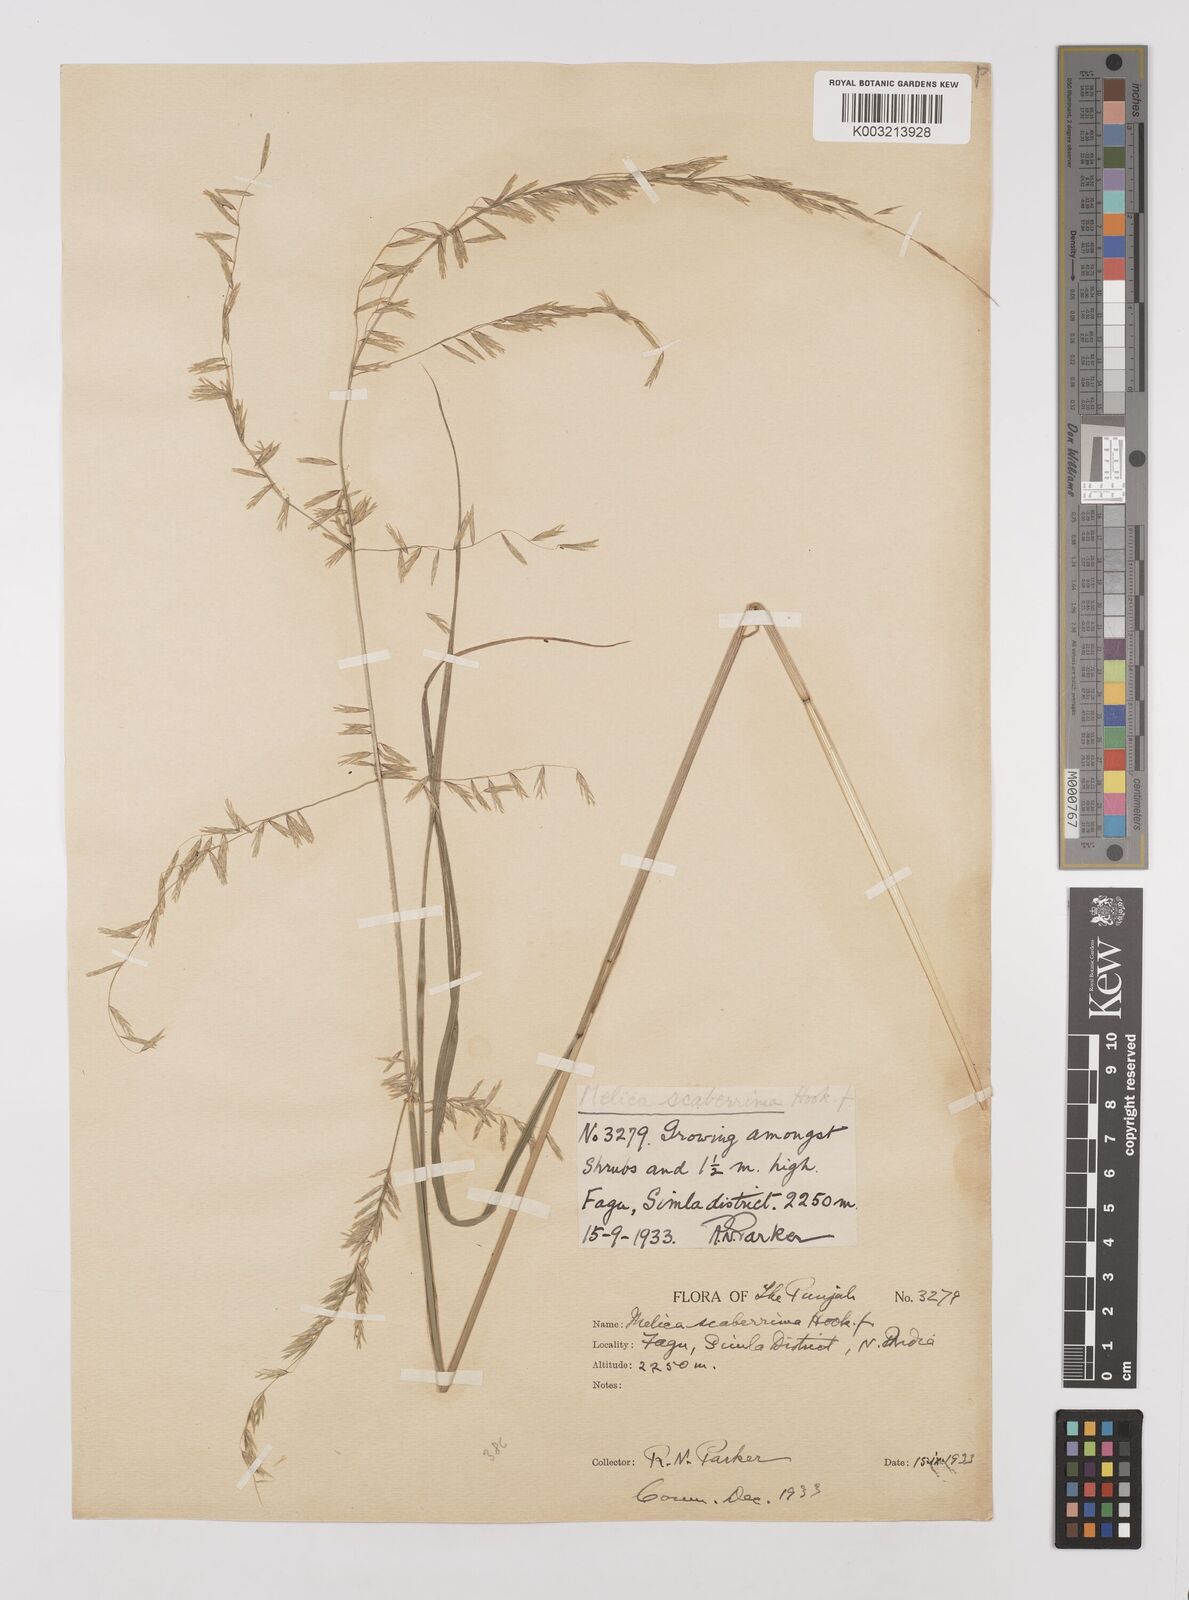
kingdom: Plantae
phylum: Tracheophyta
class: Liliopsida
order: Poales
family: Poaceae
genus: Melica
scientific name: Melica scaberrima
